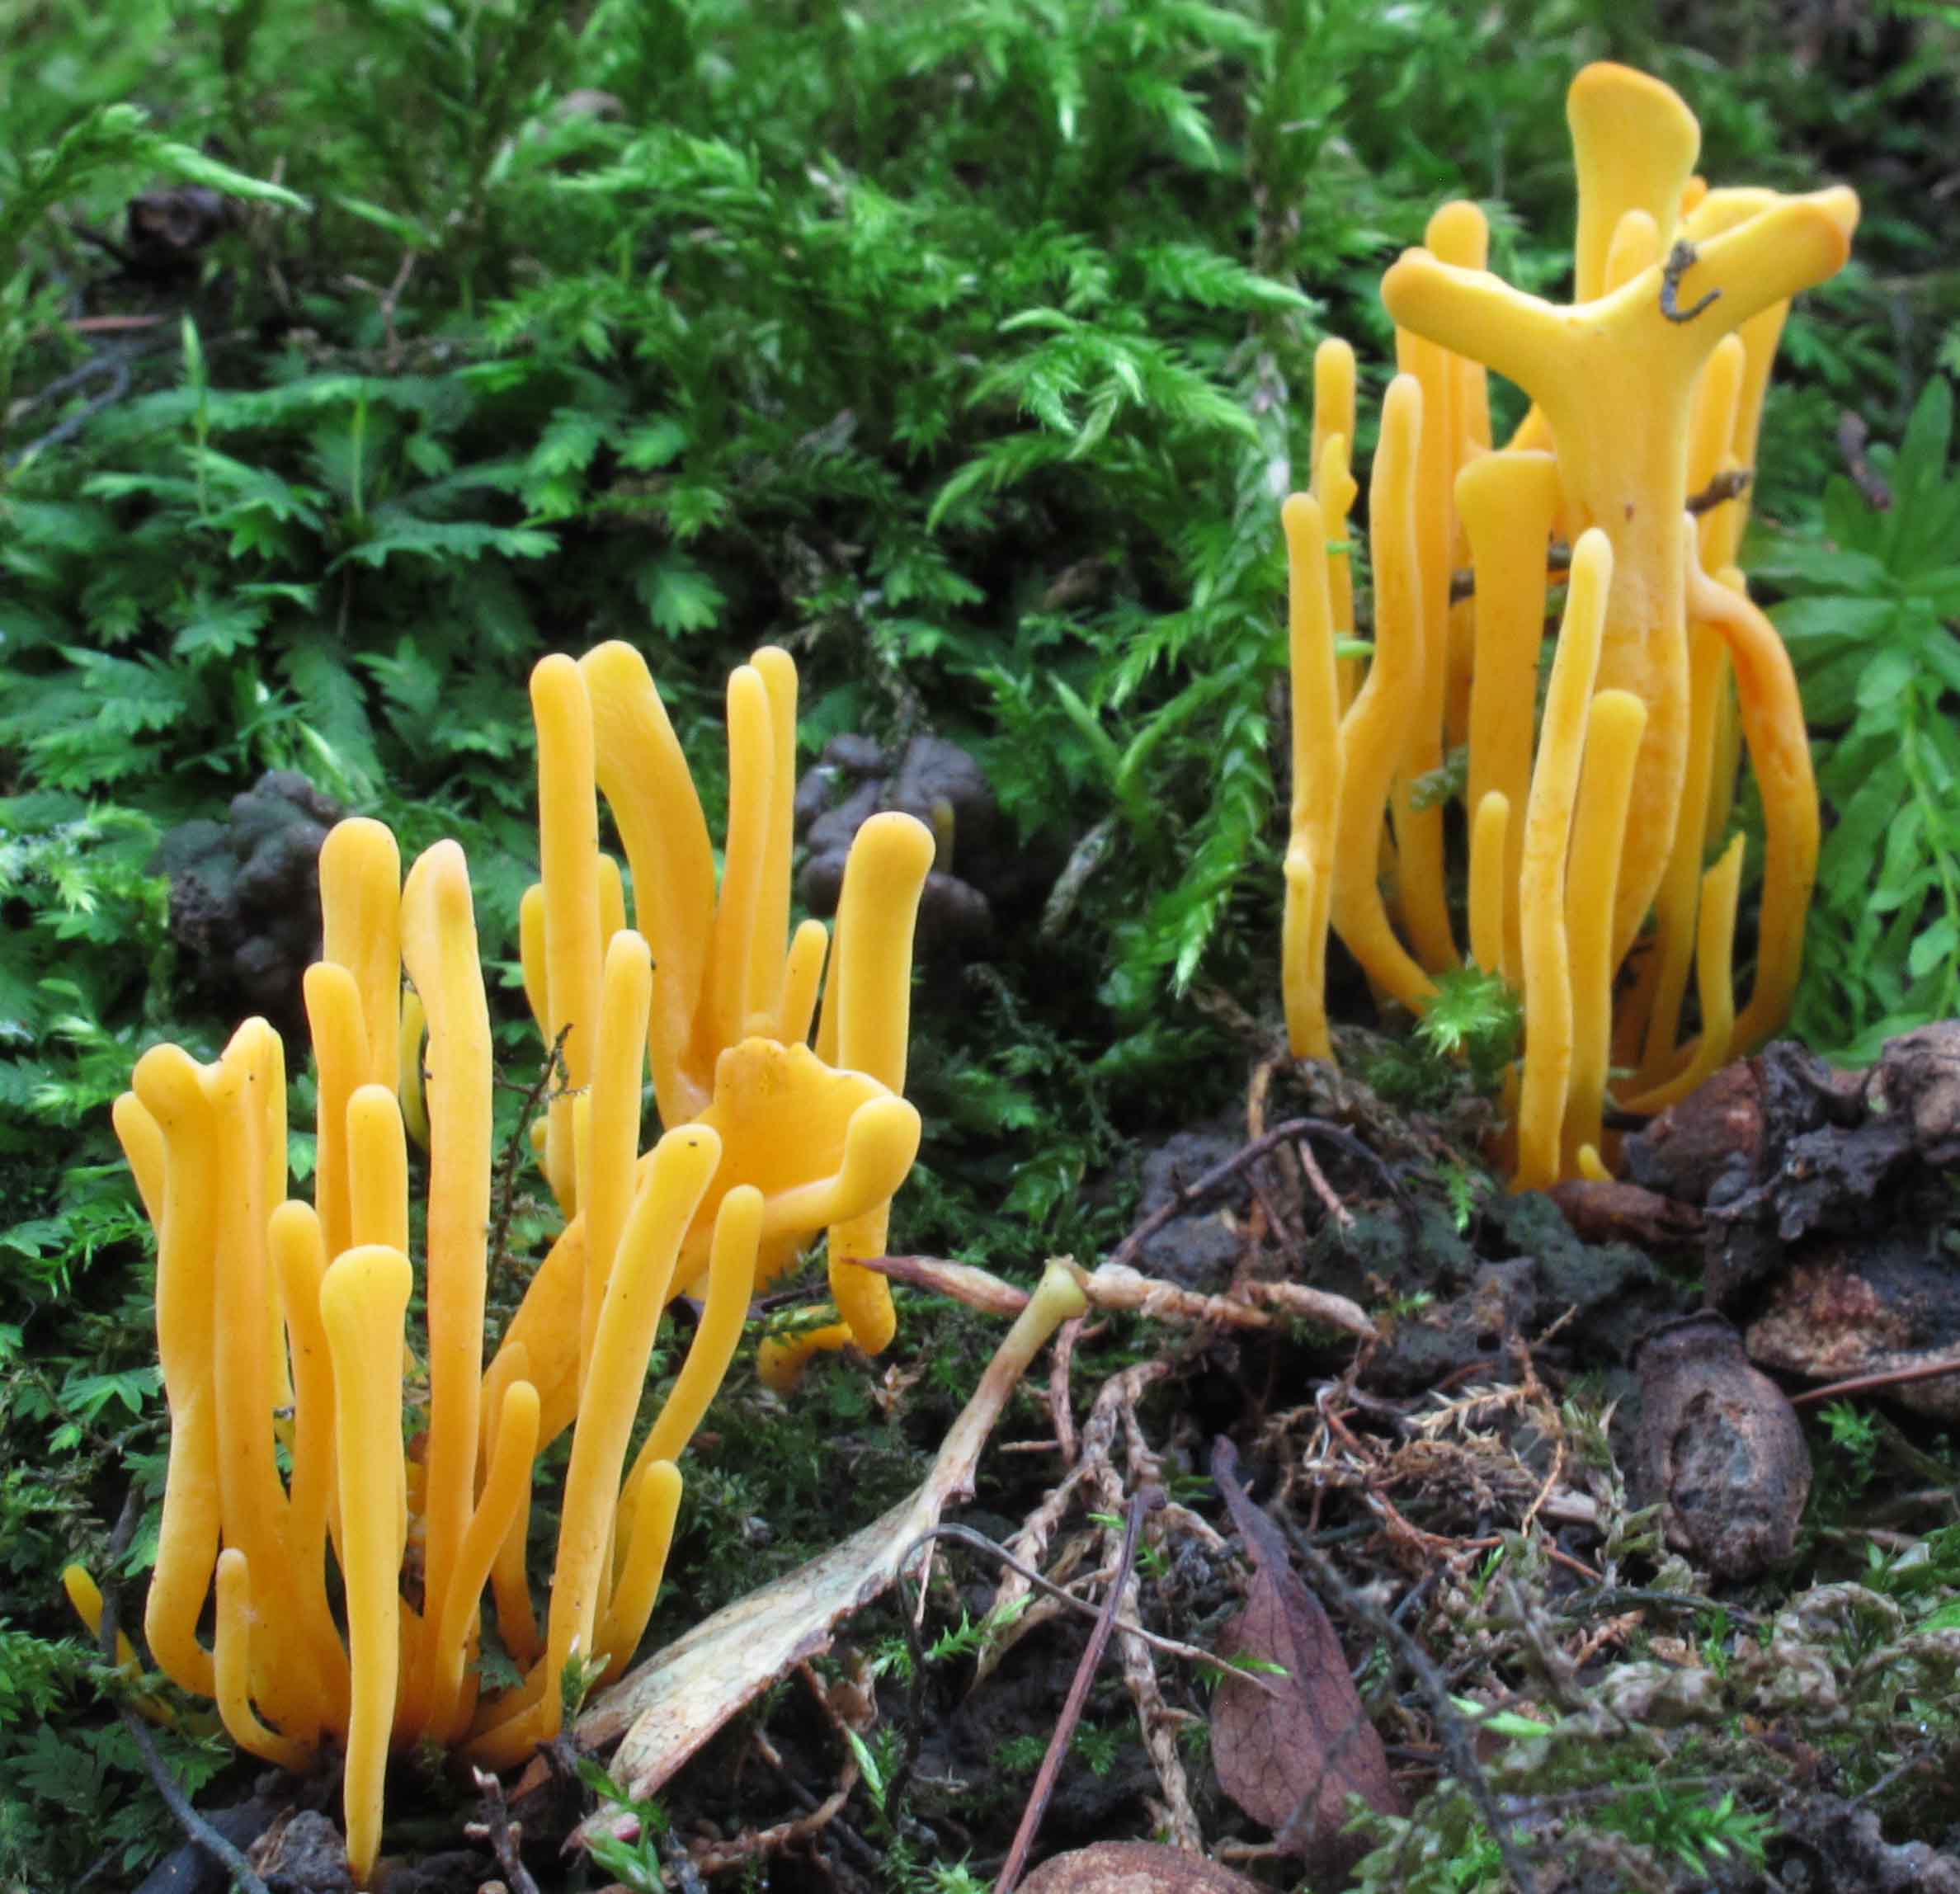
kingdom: Fungi
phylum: Basidiomycota
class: Agaricomycetes
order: Agaricales
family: Clavariaceae
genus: Clavulinopsis
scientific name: Clavulinopsis helvola
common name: orangegul køllesvamp
